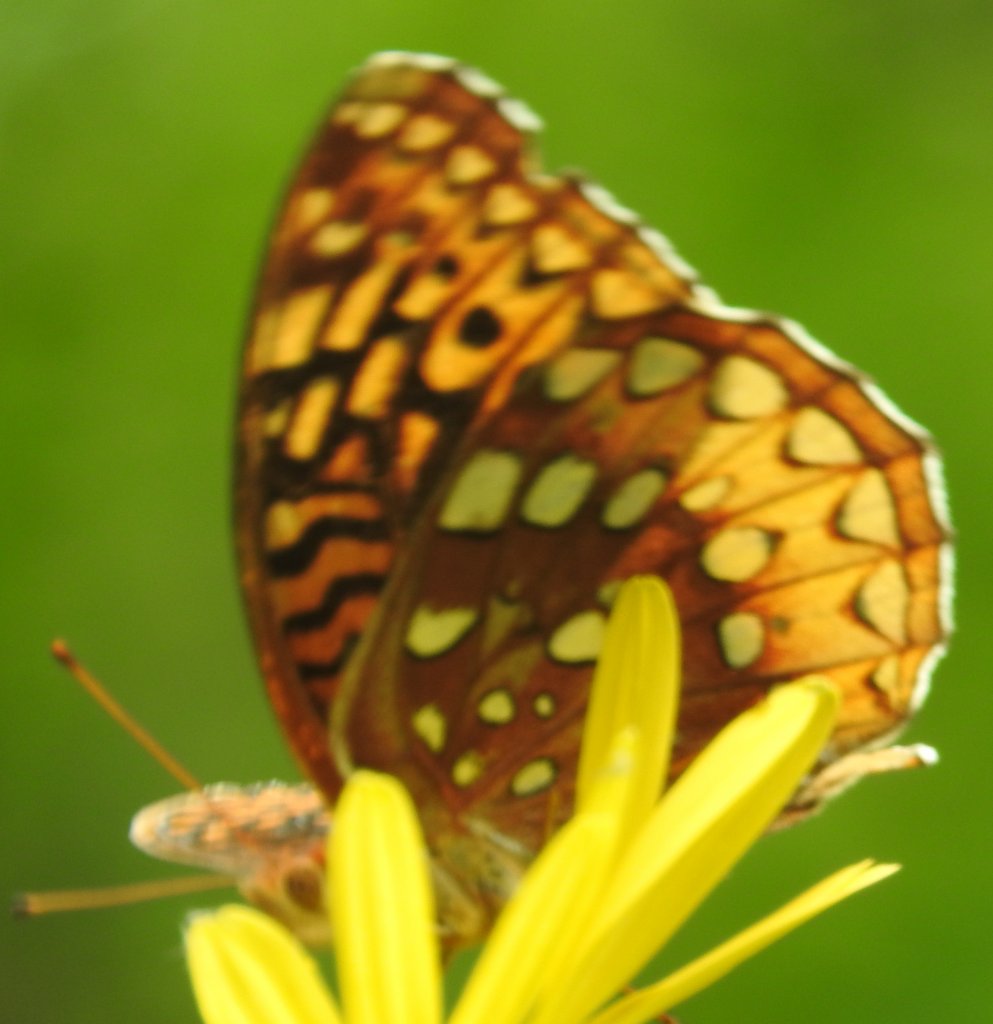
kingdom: Animalia
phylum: Arthropoda
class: Insecta
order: Lepidoptera
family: Nymphalidae
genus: Speyeria
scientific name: Speyeria cybele
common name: Great Spangled Fritillary
